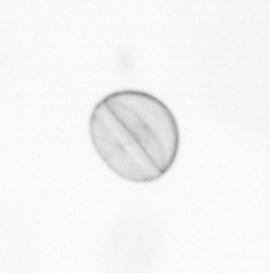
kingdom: Chromista
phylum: Ochrophyta
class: Bacillariophyceae
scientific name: Bacillariophyceae
